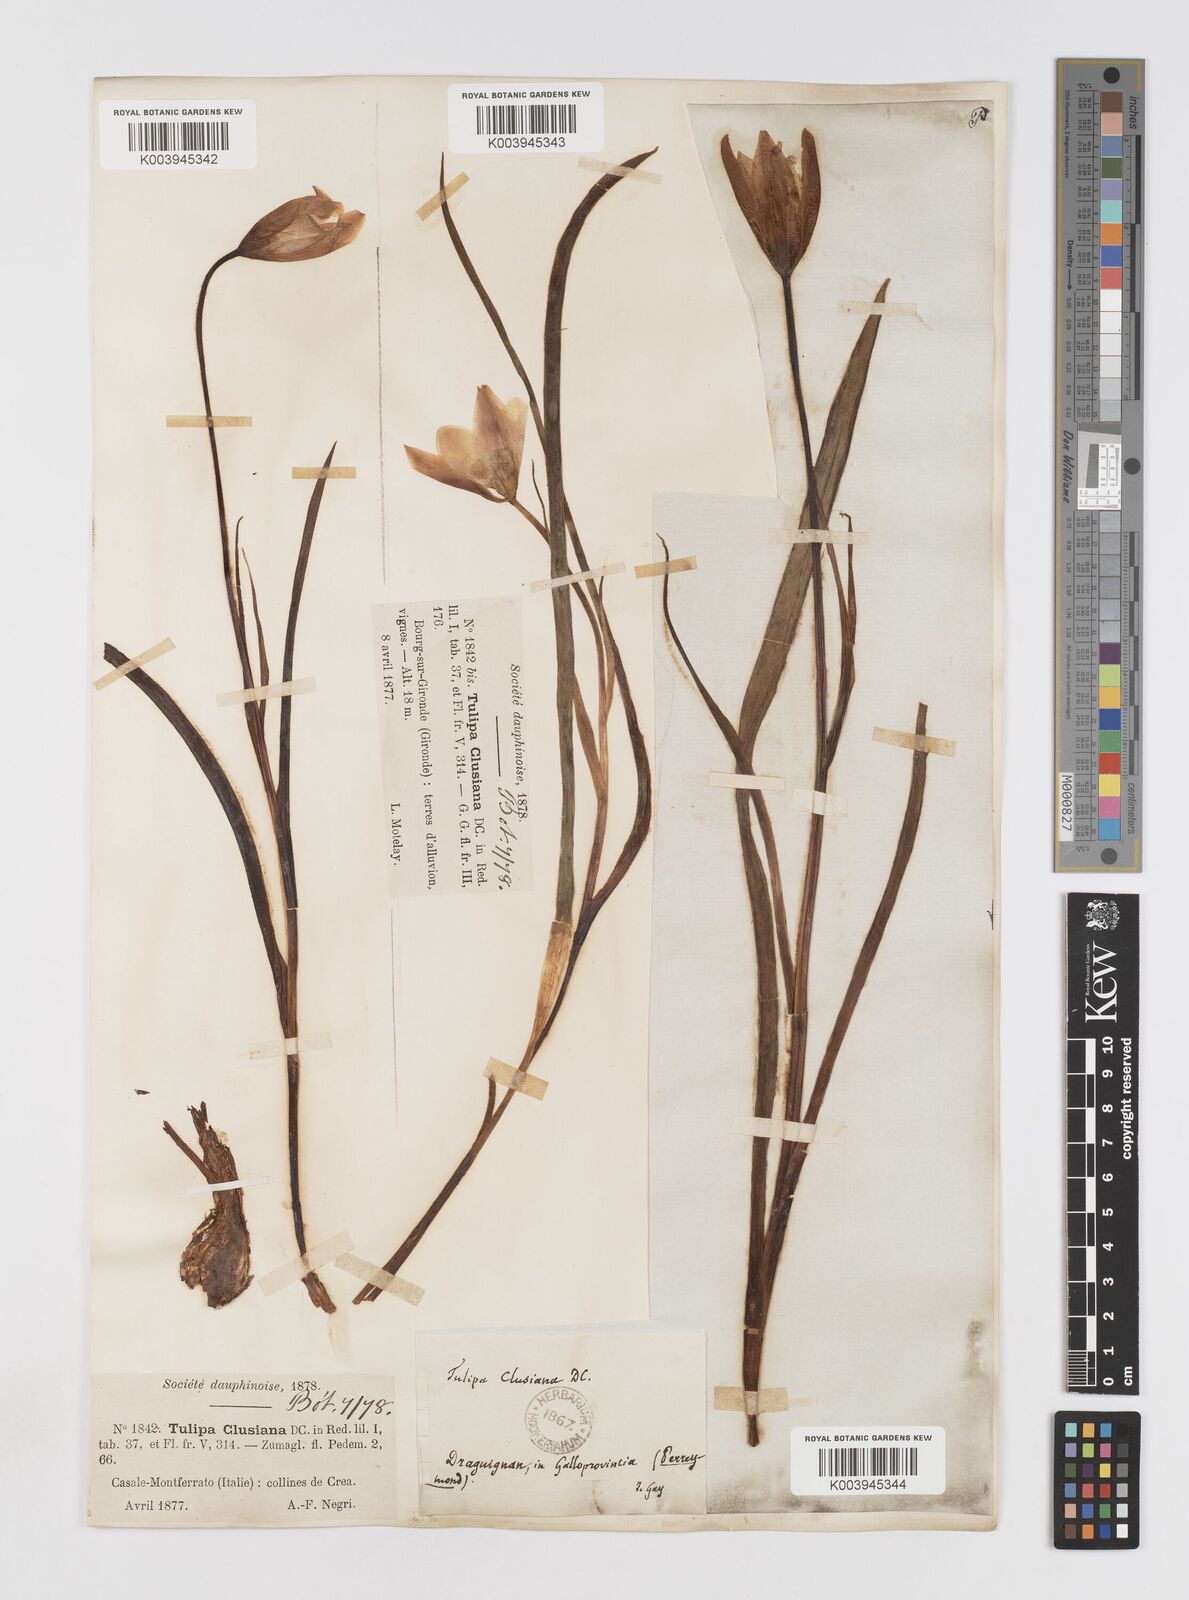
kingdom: Plantae
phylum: Tracheophyta
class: Liliopsida
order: Liliales
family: Liliaceae
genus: Tulipa
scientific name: Tulipa clusiana
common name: Lady tulip
